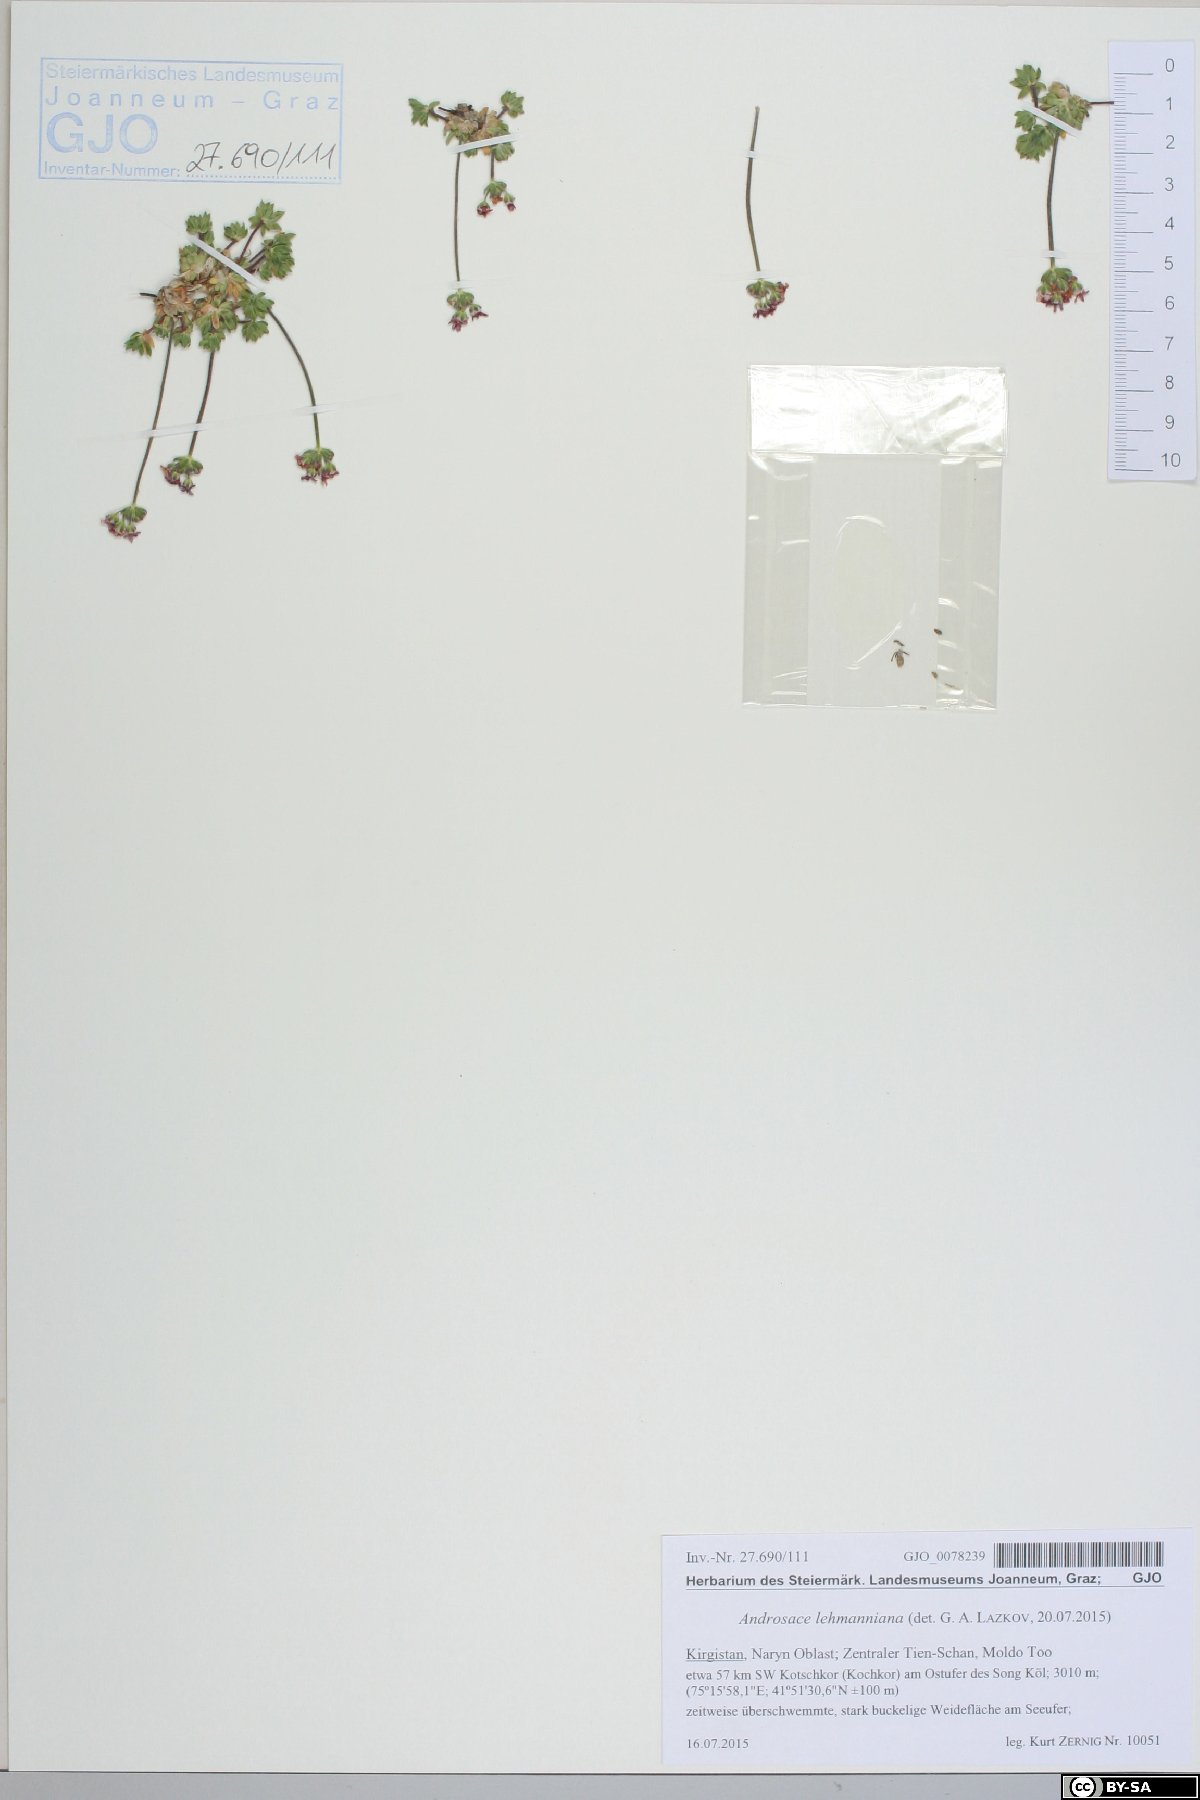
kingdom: Plantae
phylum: Tracheophyta
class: Magnoliopsida
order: Ericales
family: Primulaceae
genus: Androsace
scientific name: Androsace chamaejasme
